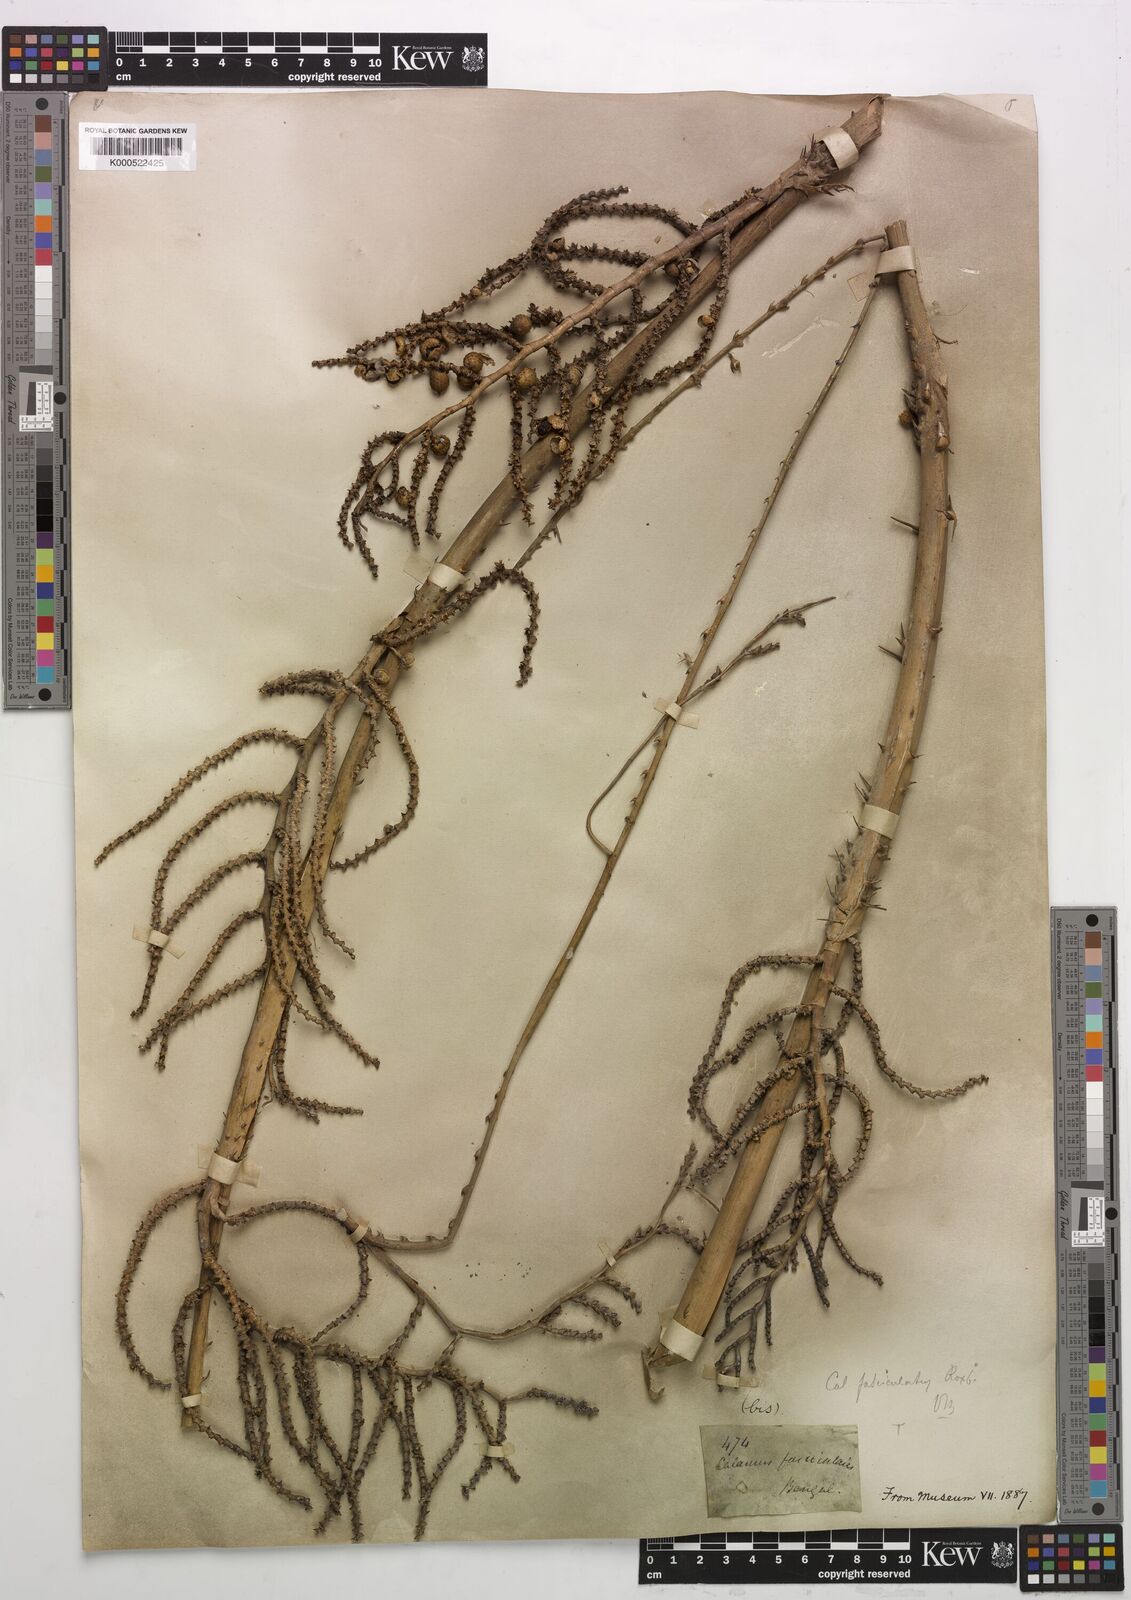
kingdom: Plantae
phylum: Tracheophyta
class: Liliopsida
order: Arecales
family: Arecaceae
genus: Calamus
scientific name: Calamus viminalis
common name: Osier-like rattan palm
